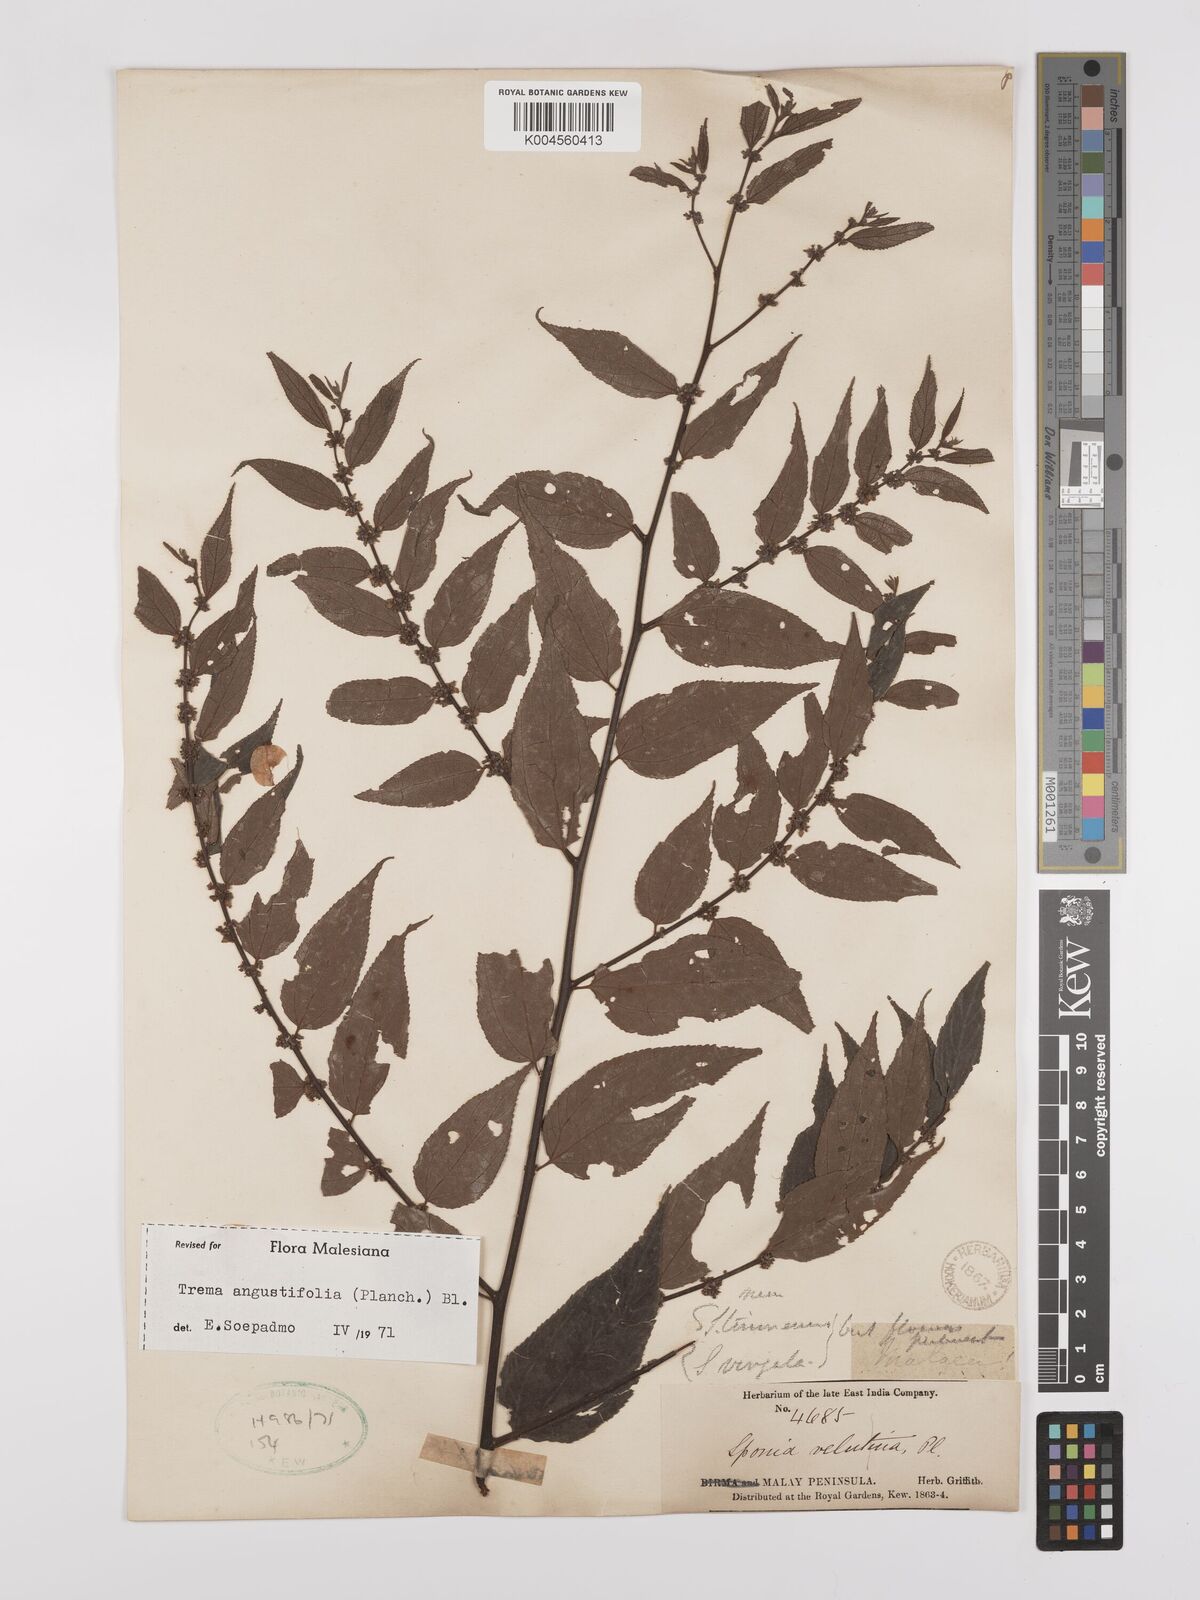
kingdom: Plantae
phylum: Tracheophyta
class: Magnoliopsida
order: Rosales
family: Cannabaceae
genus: Trema
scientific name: Trema angustifolium
